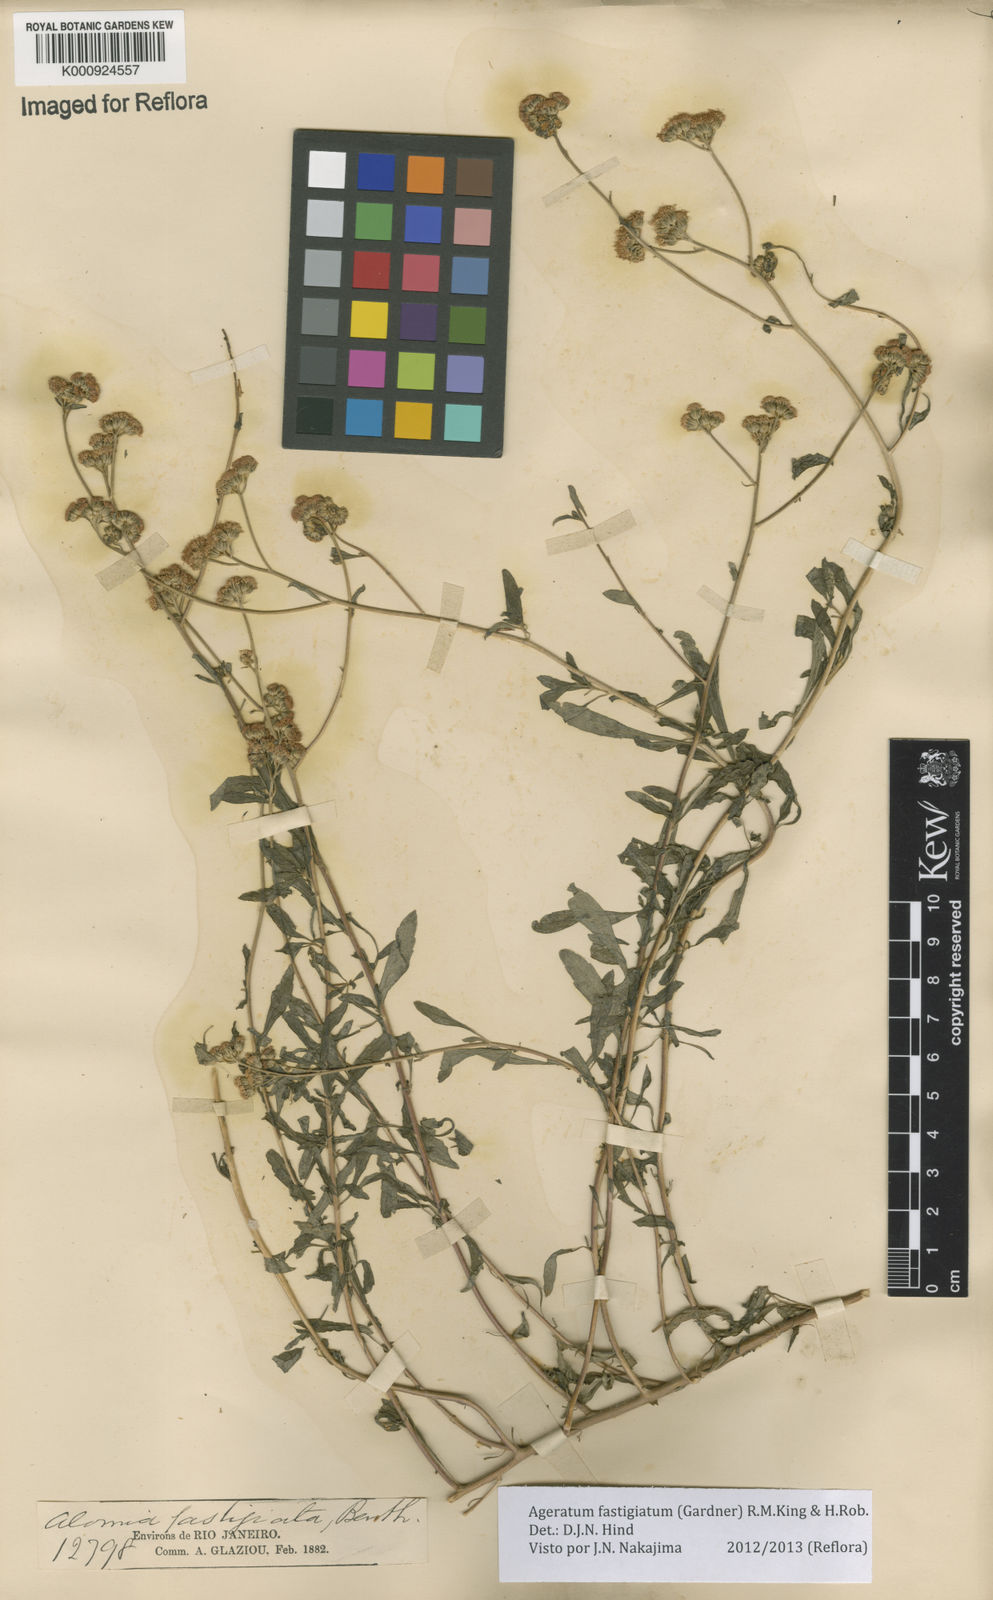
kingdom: Plantae
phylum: Tracheophyta
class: Magnoliopsida
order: Asterales
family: Asteraceae
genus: Ageratum
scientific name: Ageratum fastigiatum
